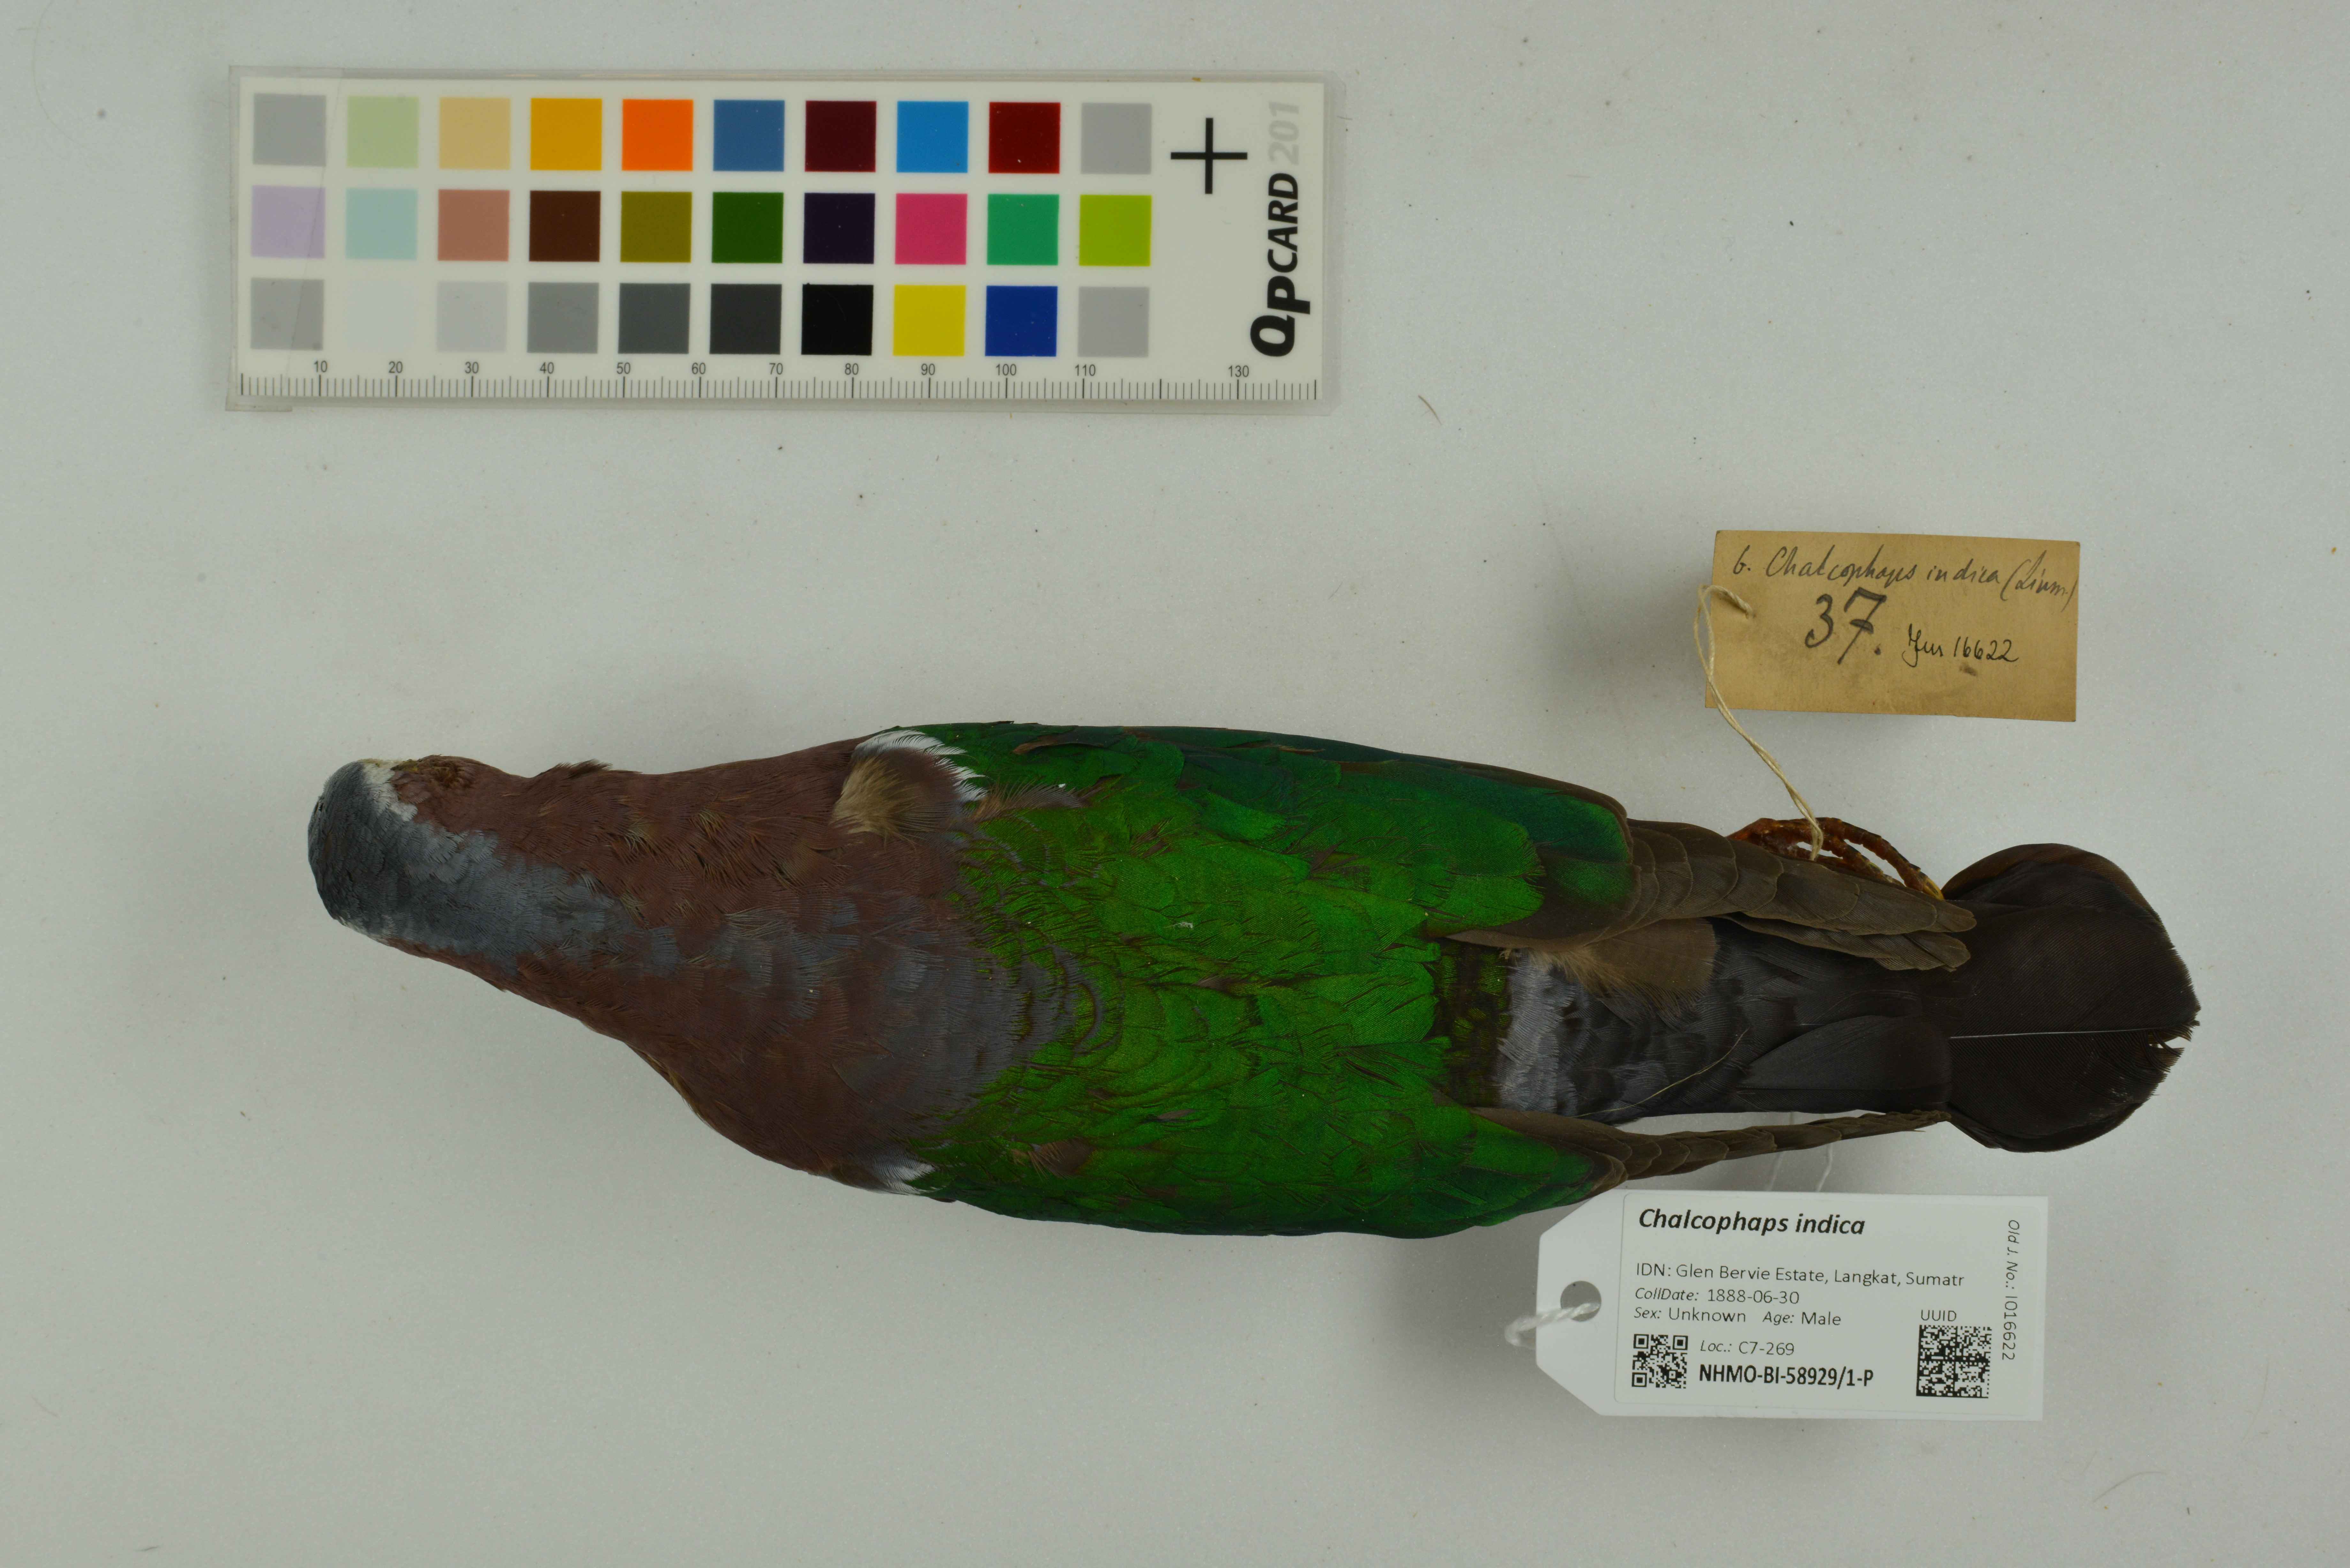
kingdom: Animalia
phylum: Chordata
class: Aves
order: Columbiformes
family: Columbidae
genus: Chalcophaps
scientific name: Chalcophaps indica
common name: Common emerald dove
